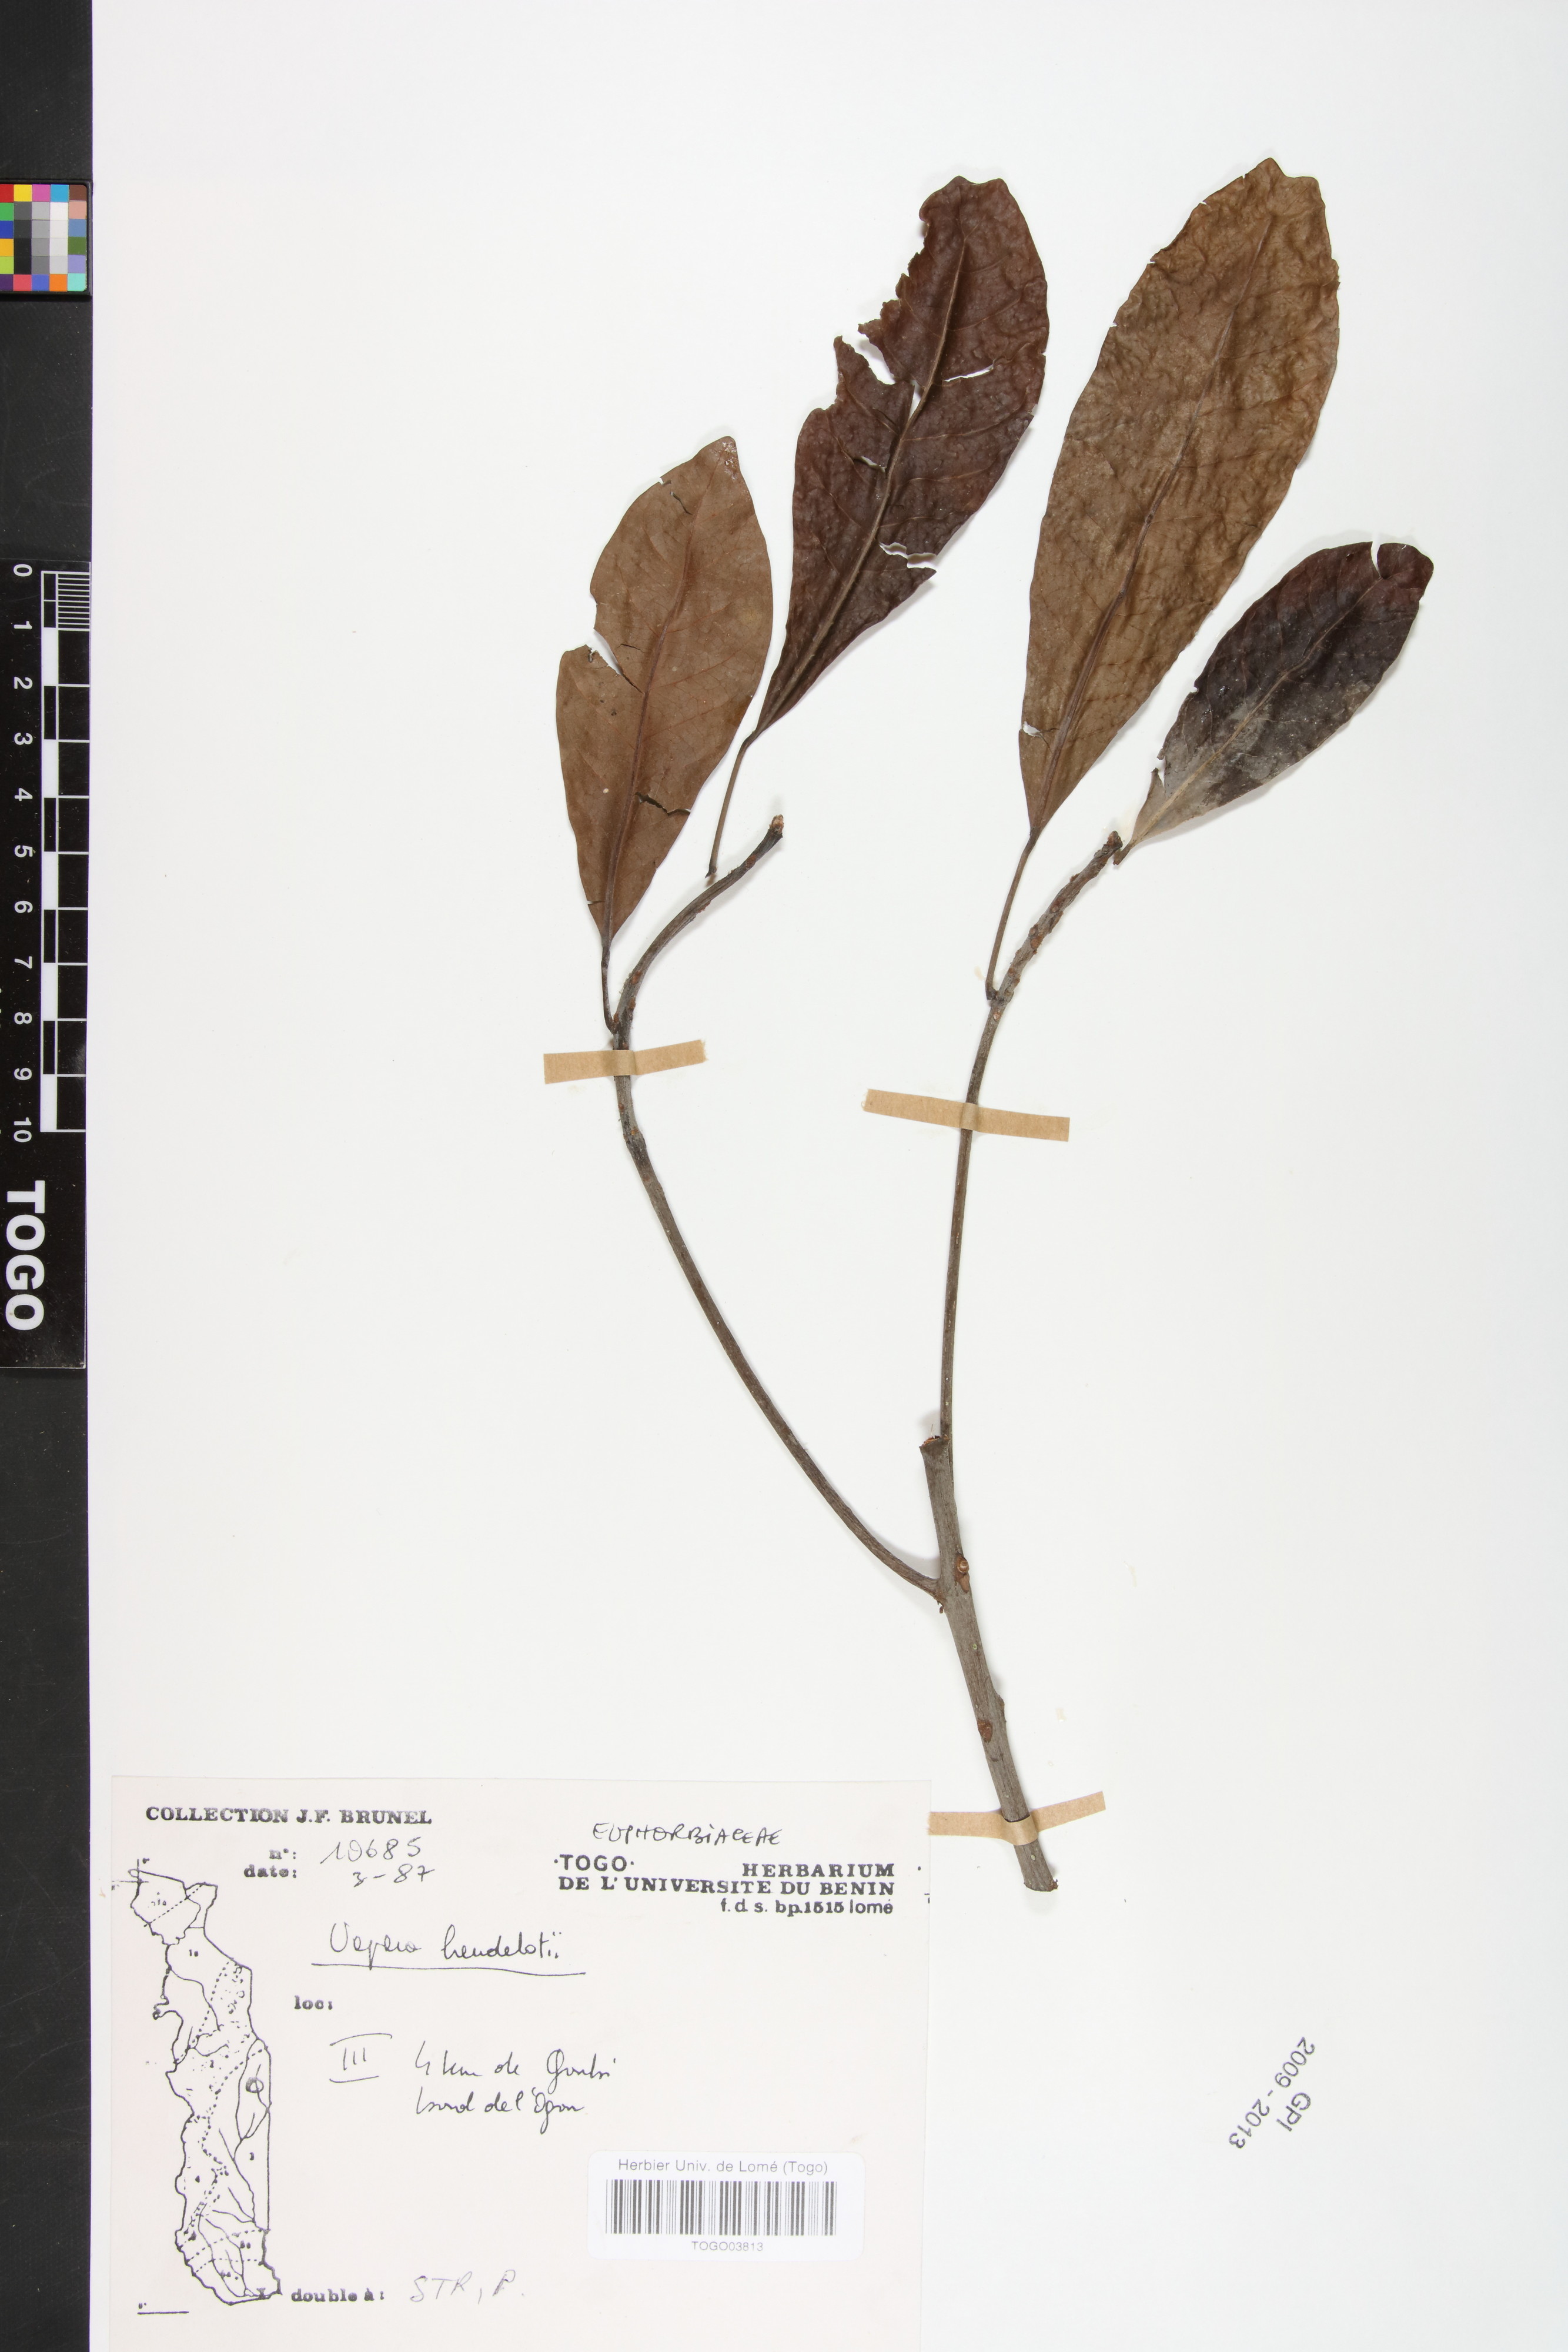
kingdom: Plantae
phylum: Tracheophyta
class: Magnoliopsida
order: Malpighiales
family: Phyllanthaceae
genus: Uapaca
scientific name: Uapaca heudelotii
